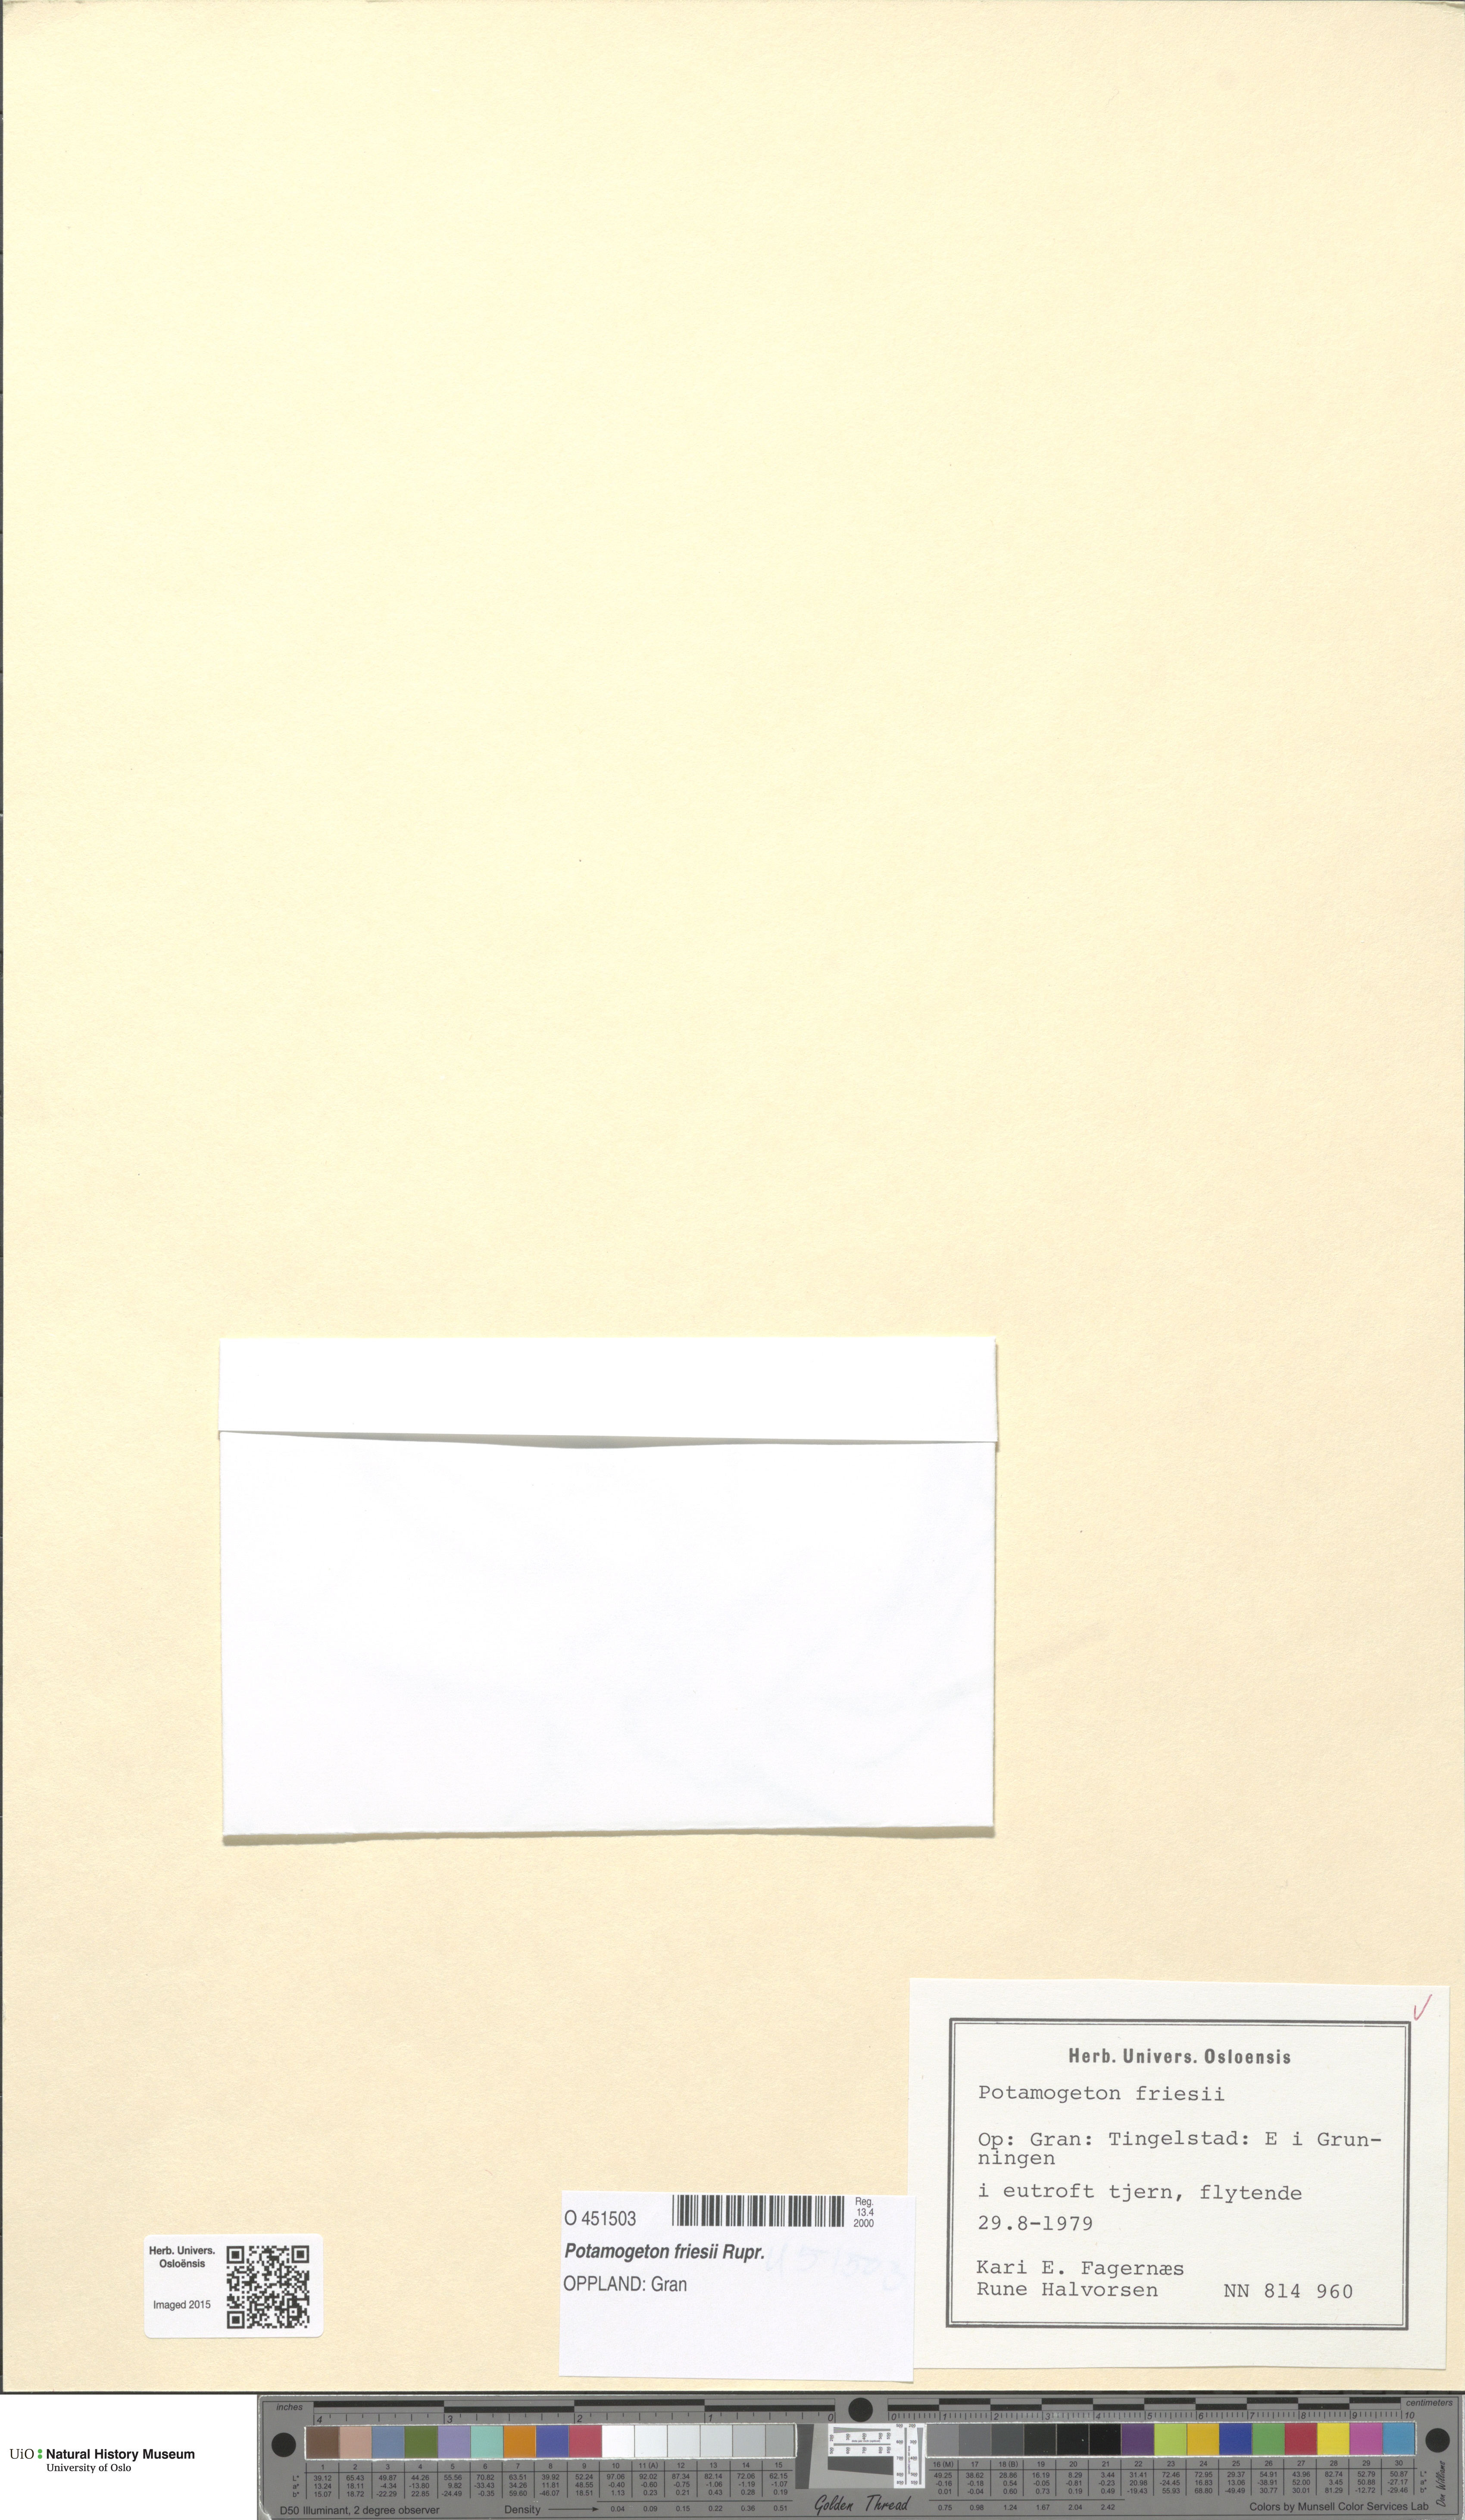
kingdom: Plantae
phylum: Tracheophyta
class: Liliopsida
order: Alismatales
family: Potamogetonaceae
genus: Potamogeton
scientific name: Potamogeton friesii
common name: Flat-stalked pondweed
